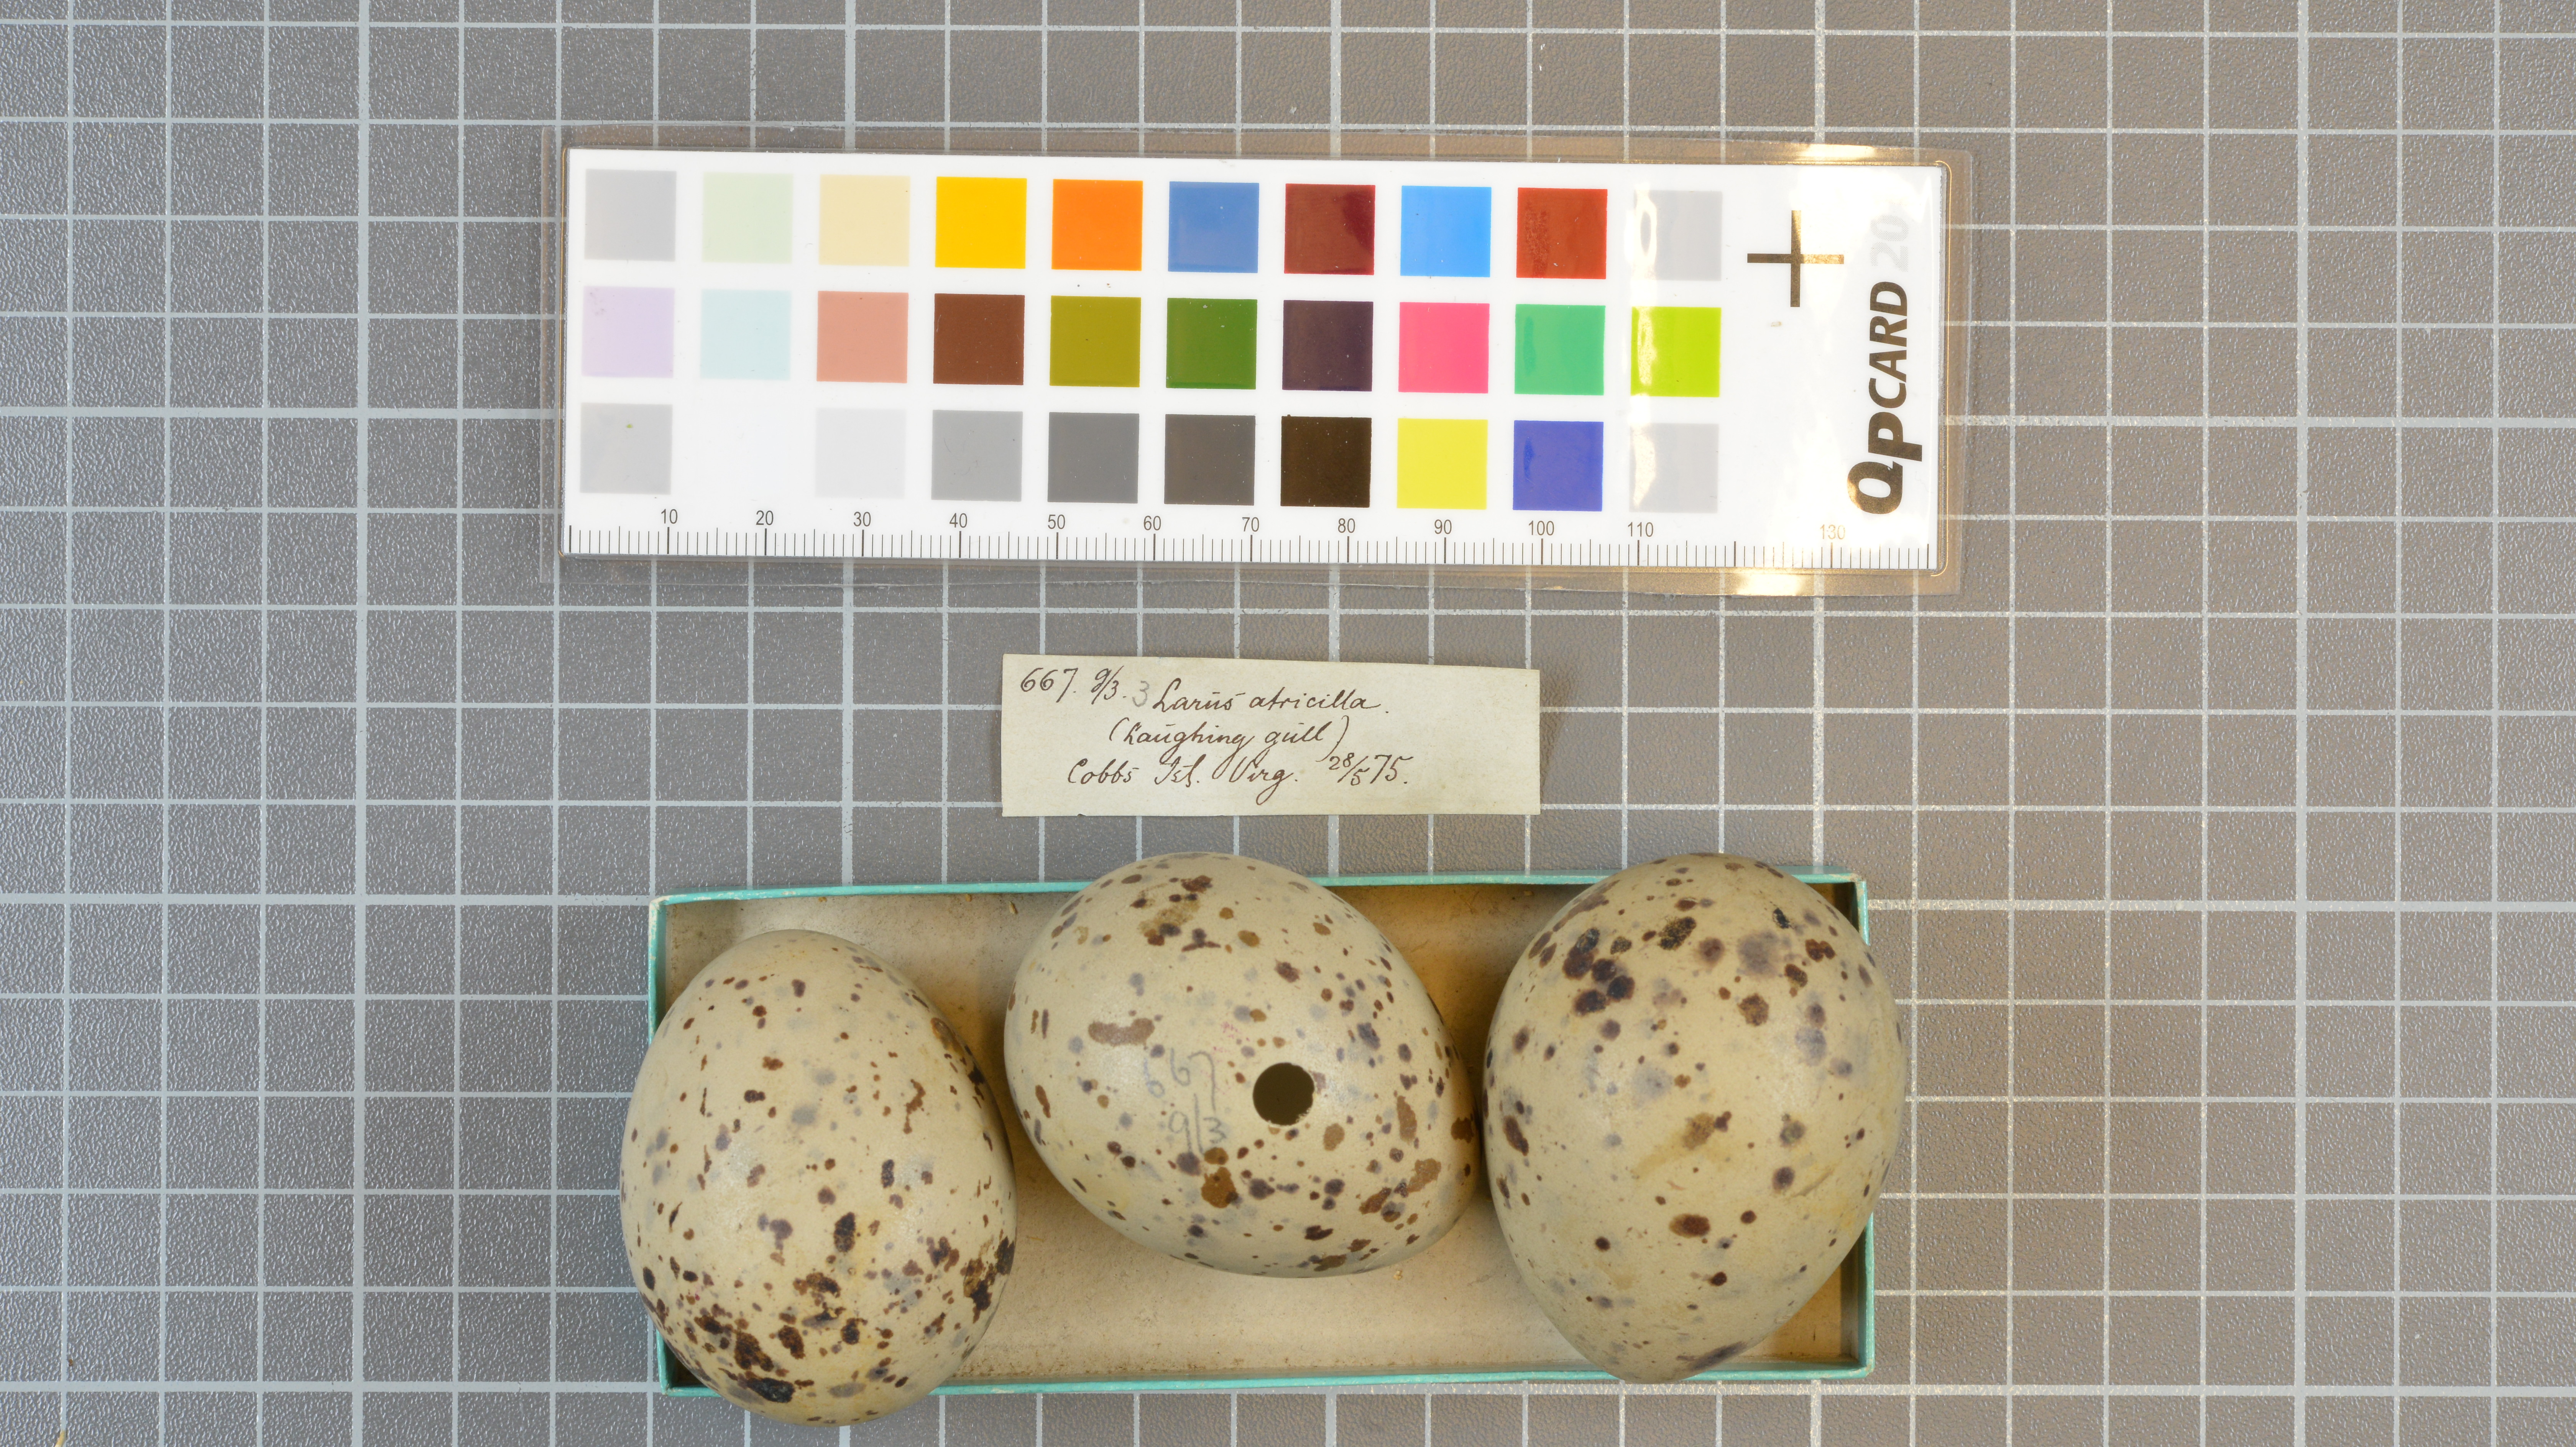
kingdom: Animalia
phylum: Chordata
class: Aves
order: Charadriiformes
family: Laridae
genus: Leucophaeus
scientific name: Leucophaeus atricilla
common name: Laughing gull
